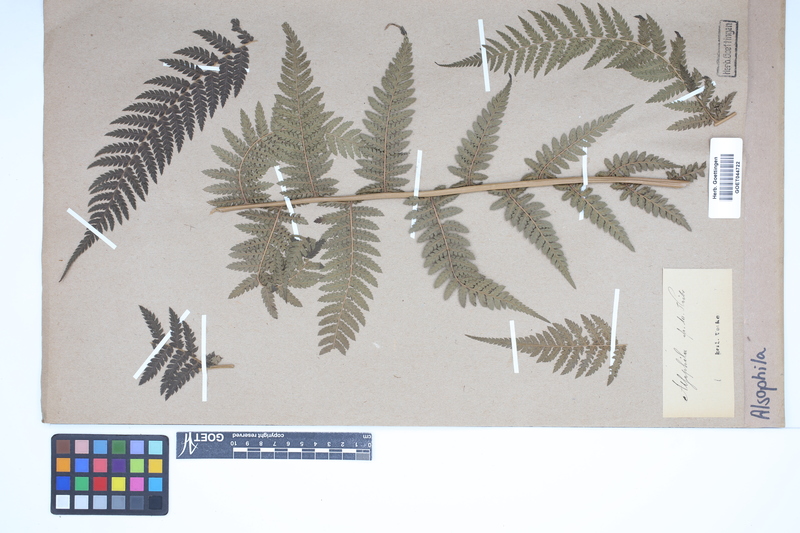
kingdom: Plantae
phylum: Tracheophyta
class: Polypodiopsida
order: Cyatheales
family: Cyatheaceae
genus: Alsophila
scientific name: Alsophila
